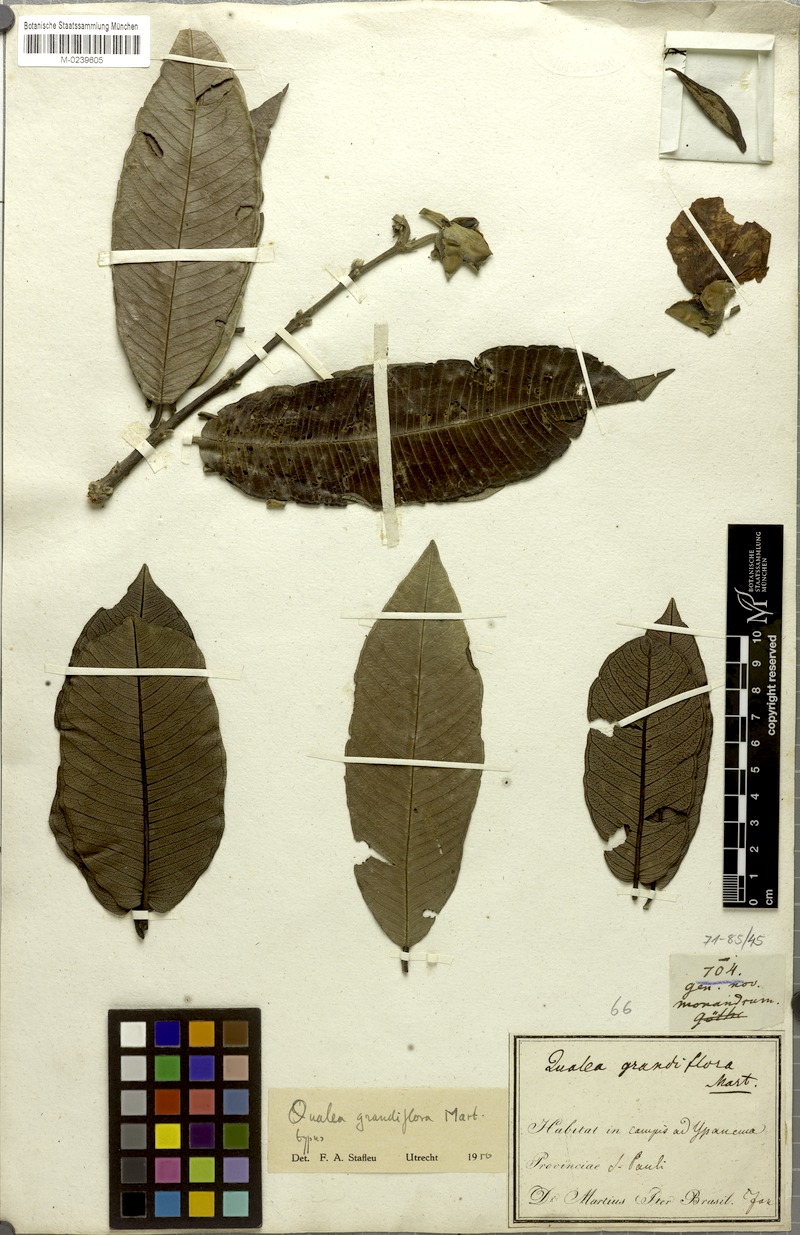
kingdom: Plantae
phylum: Tracheophyta
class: Magnoliopsida
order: Myrtales
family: Vochysiaceae
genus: Qualea
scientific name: Qualea grandiflora
